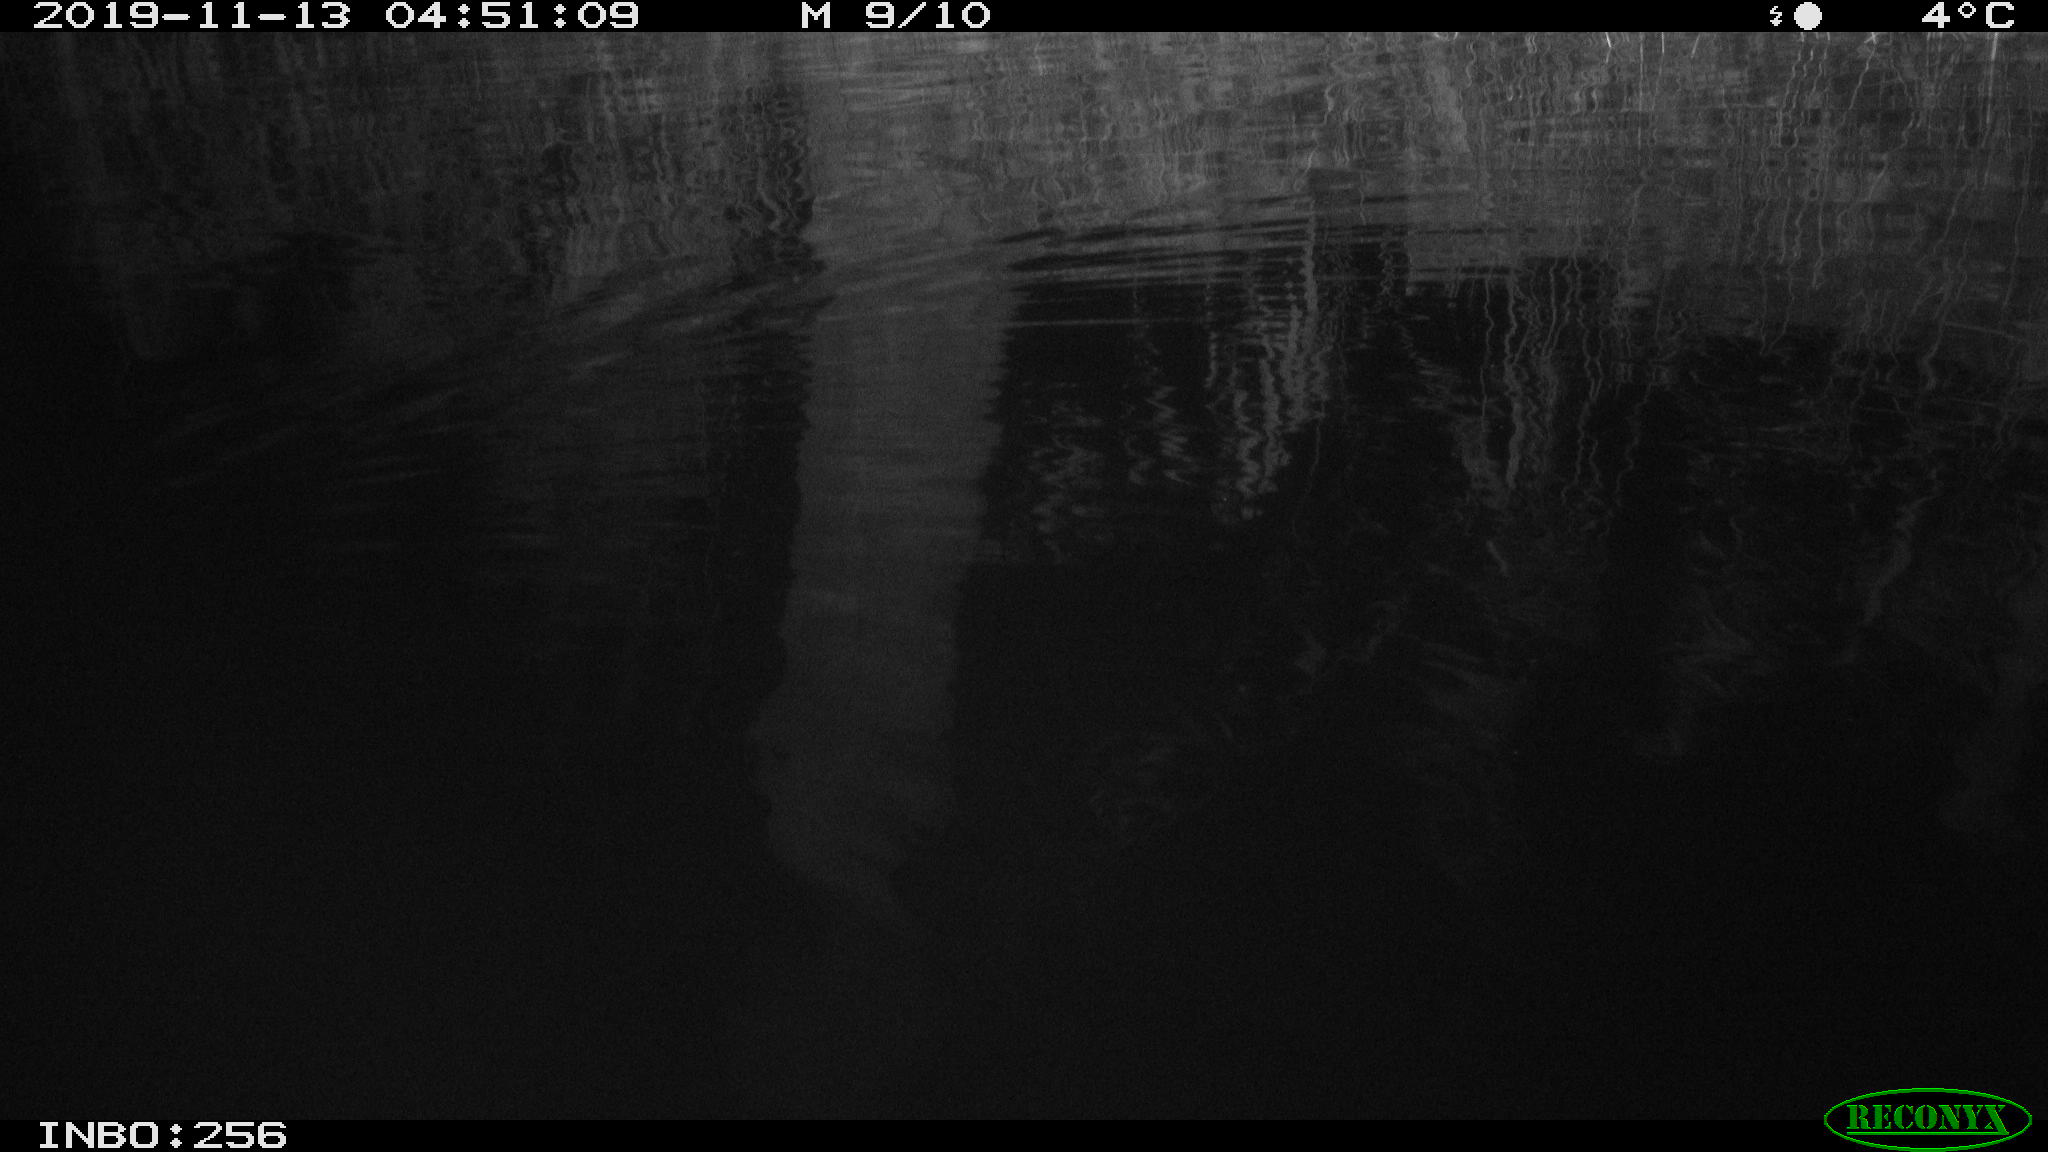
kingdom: Animalia
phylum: Chordata
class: Mammalia
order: Rodentia
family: Muridae
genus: Rattus
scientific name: Rattus norvegicus
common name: Brown rat
